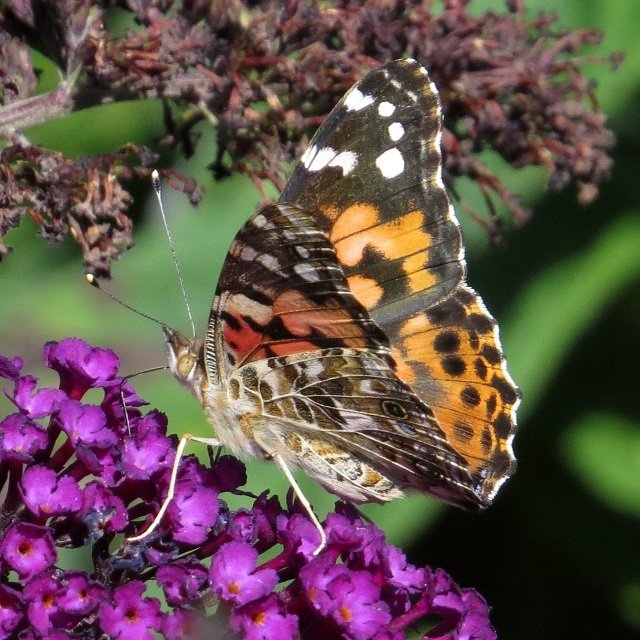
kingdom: Animalia
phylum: Arthropoda
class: Insecta
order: Lepidoptera
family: Nymphalidae
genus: Vanessa
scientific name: Vanessa cardui
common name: Painted Lady
